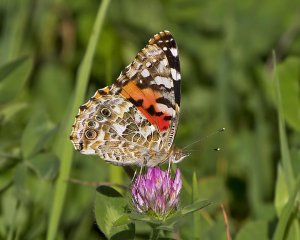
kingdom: Animalia
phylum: Arthropoda
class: Insecta
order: Lepidoptera
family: Nymphalidae
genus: Vanessa
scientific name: Vanessa cardui
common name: Painted Lady
